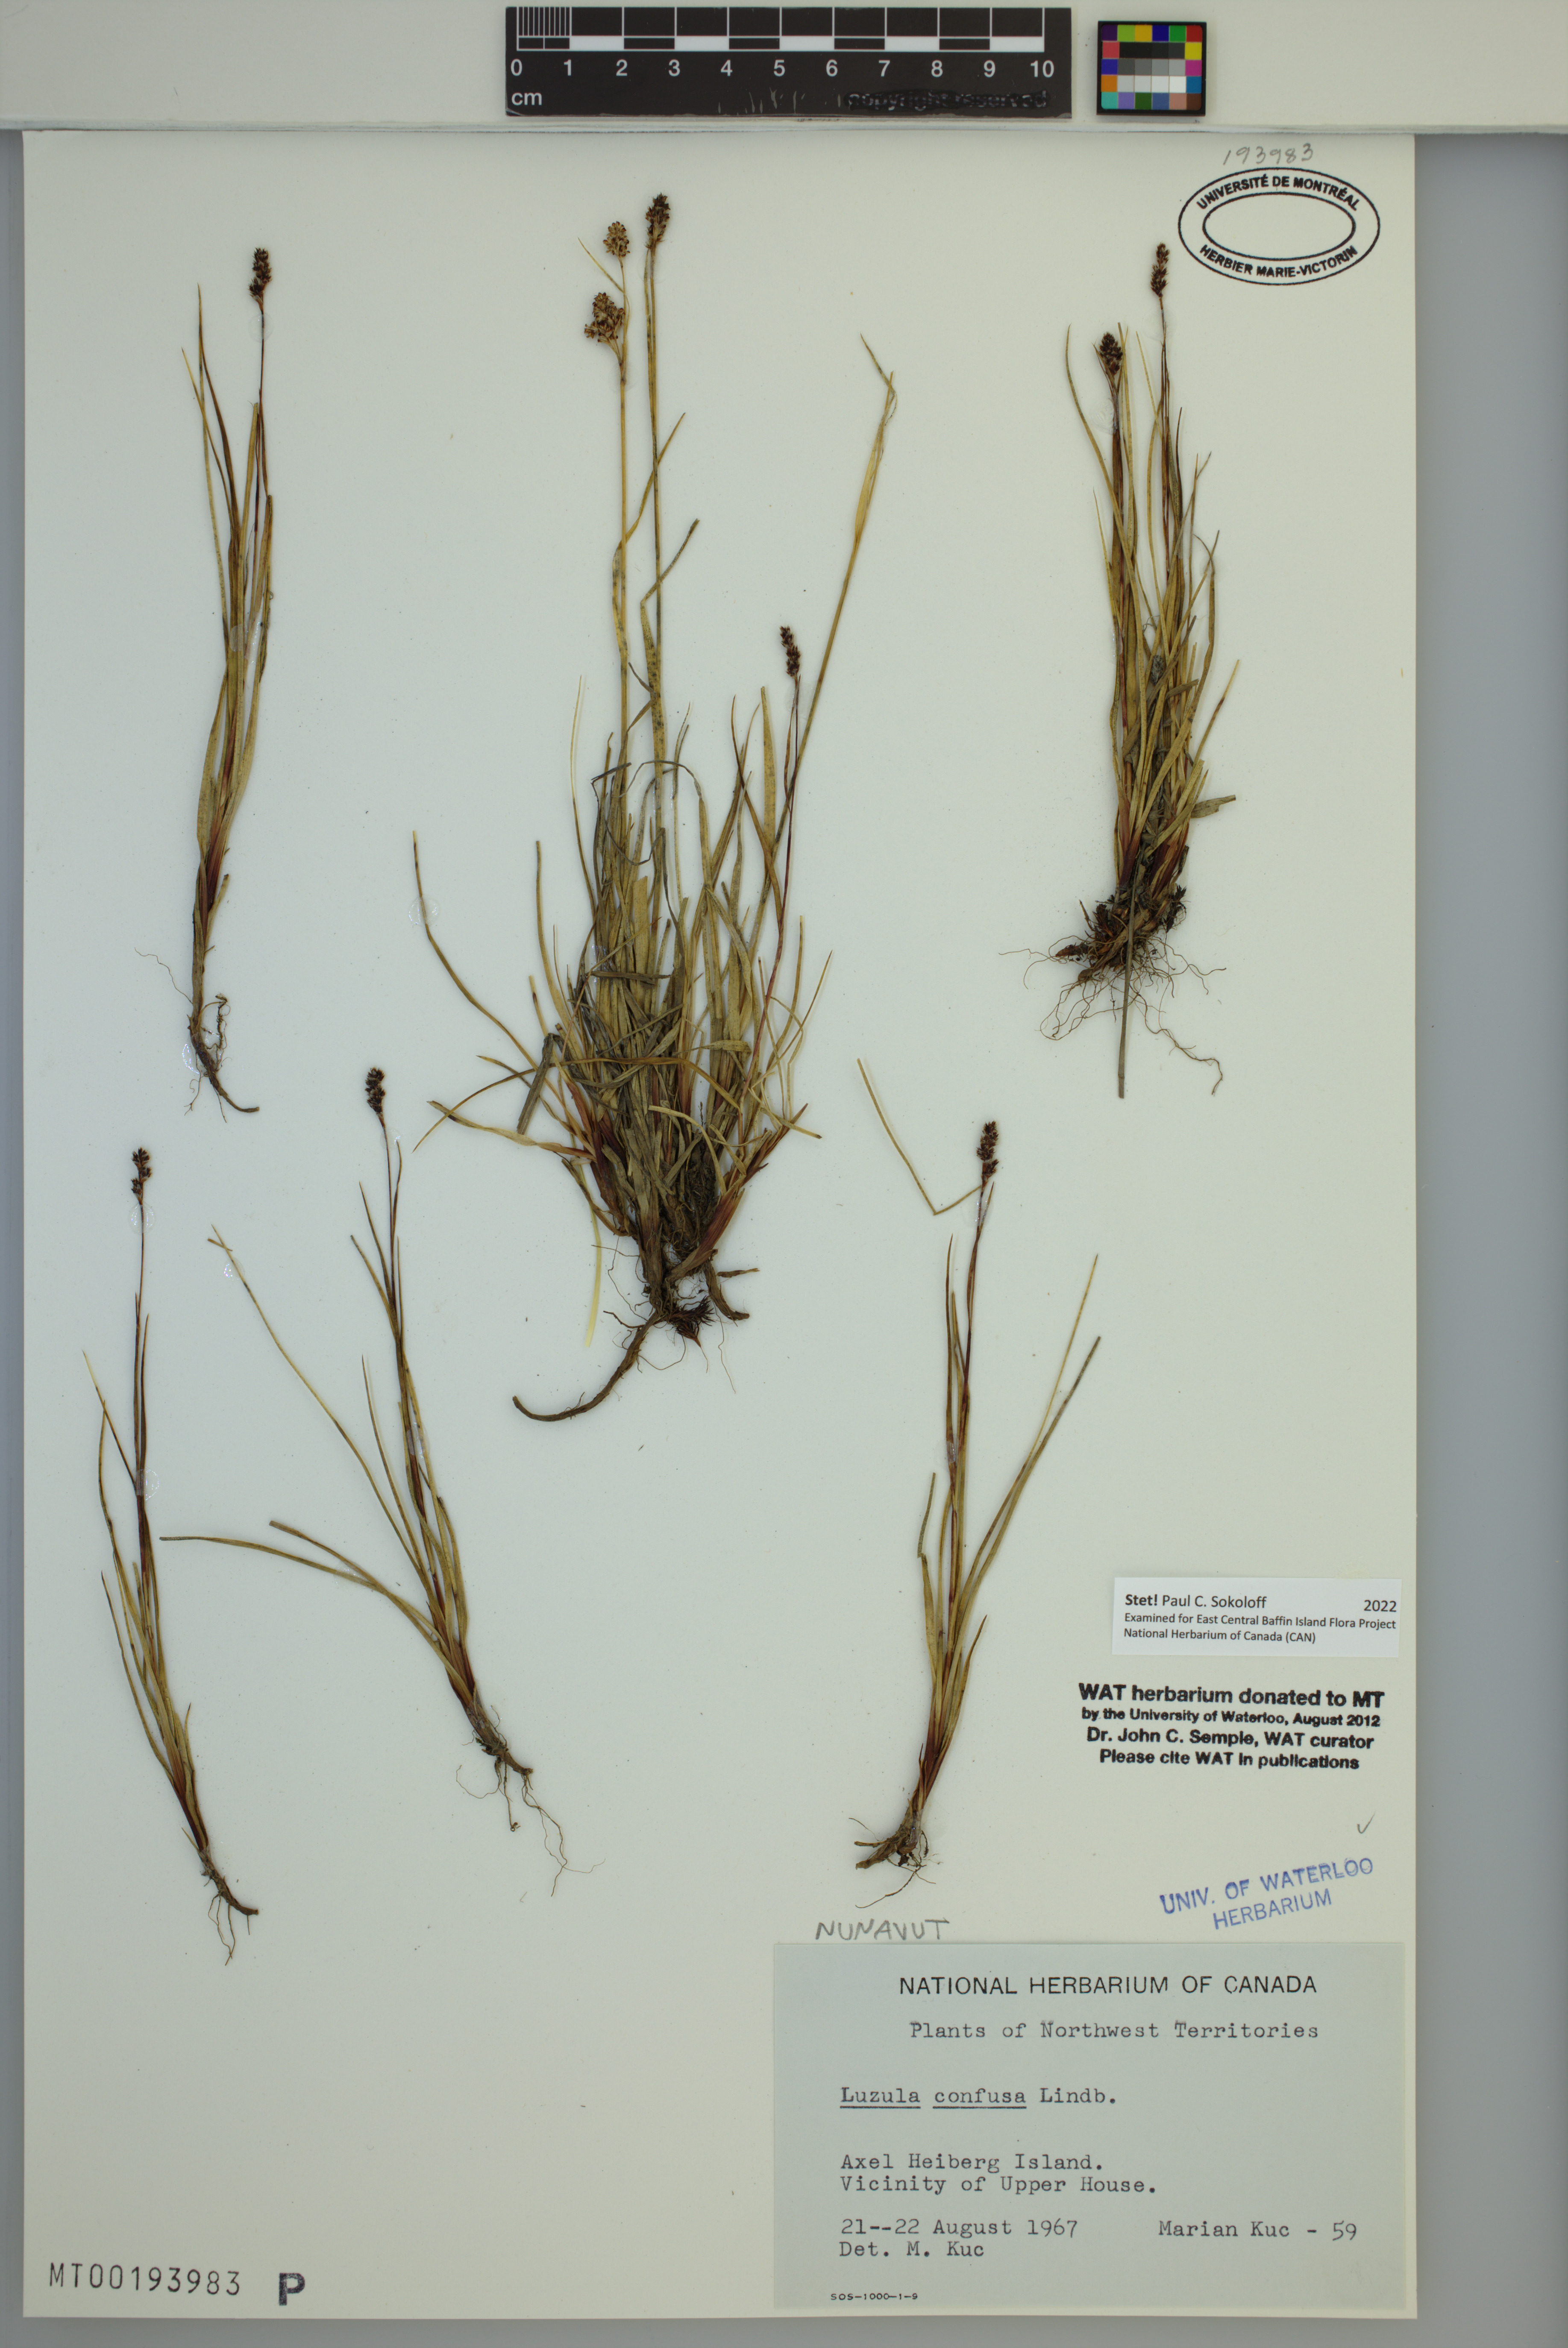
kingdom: Plantae
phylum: Tracheophyta
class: Liliopsida
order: Poales
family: Juncaceae
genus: Luzula
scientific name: Luzula confusa
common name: Northern wood rush
